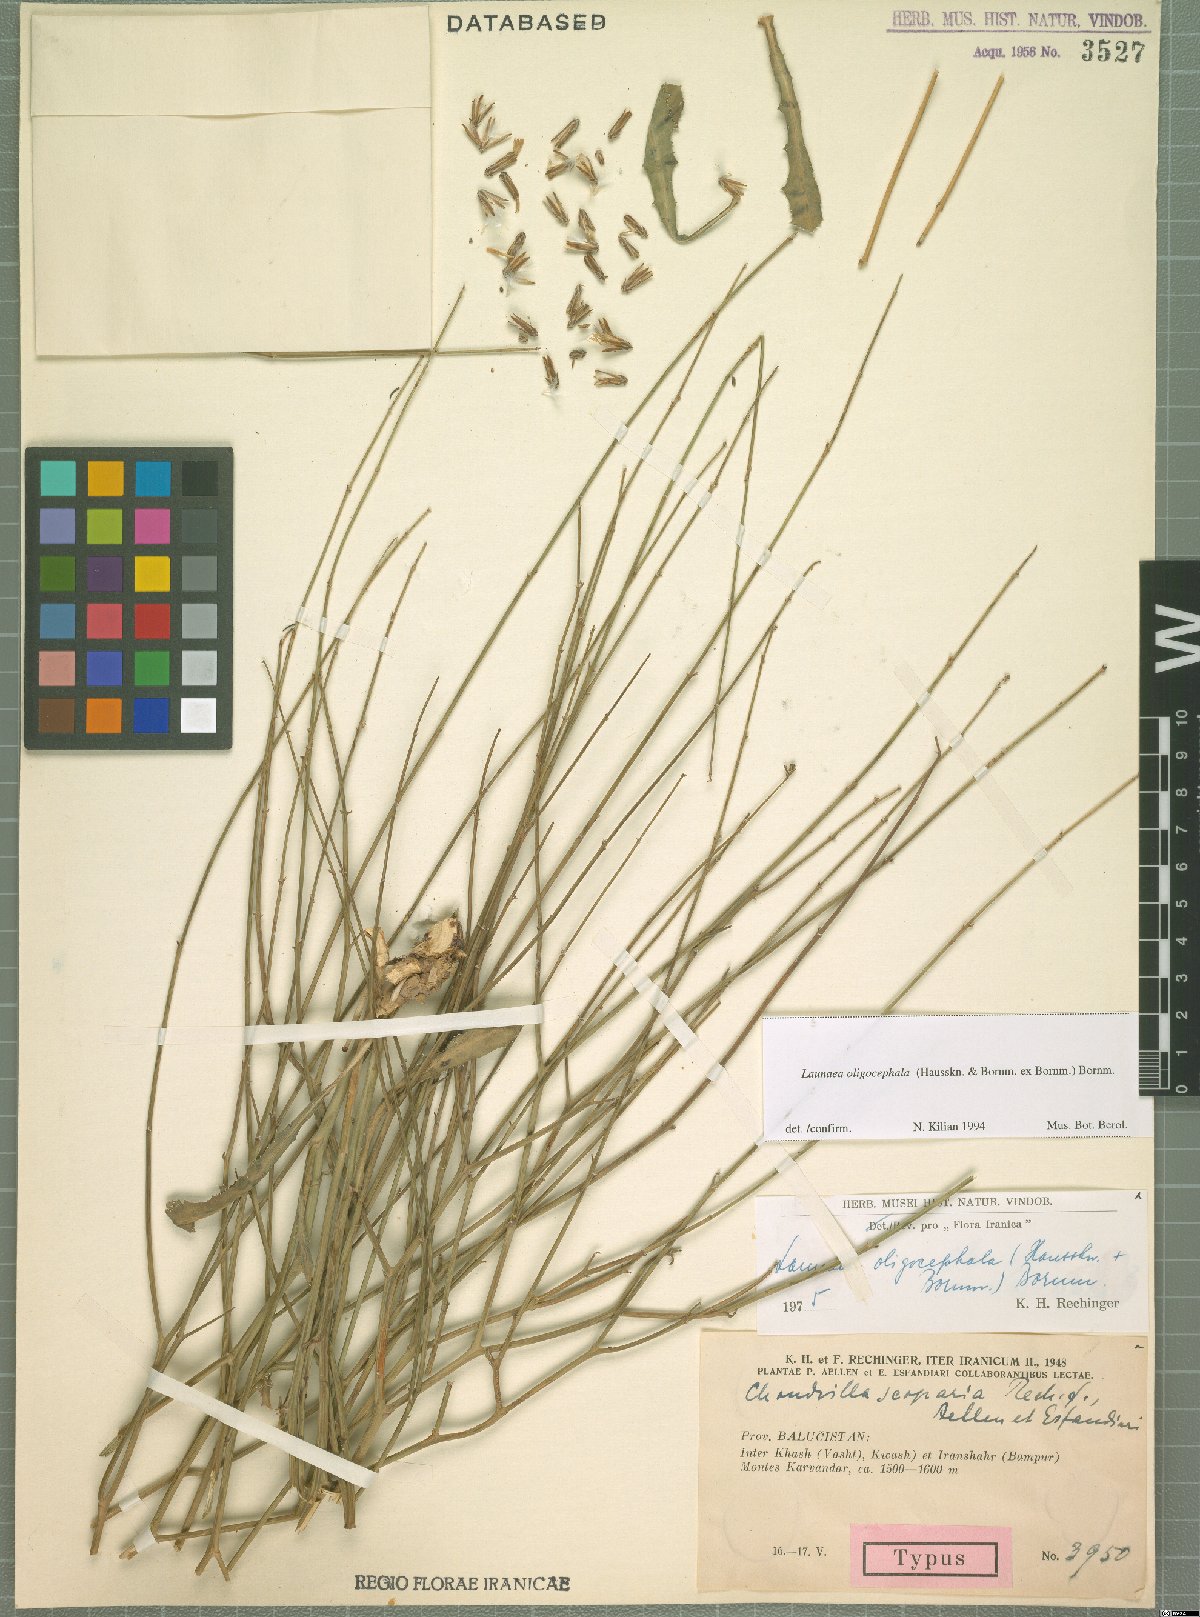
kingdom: Plantae
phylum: Tracheophyta
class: Magnoliopsida
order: Asterales
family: Asteraceae
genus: Launaea
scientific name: Launaea oligocephala
